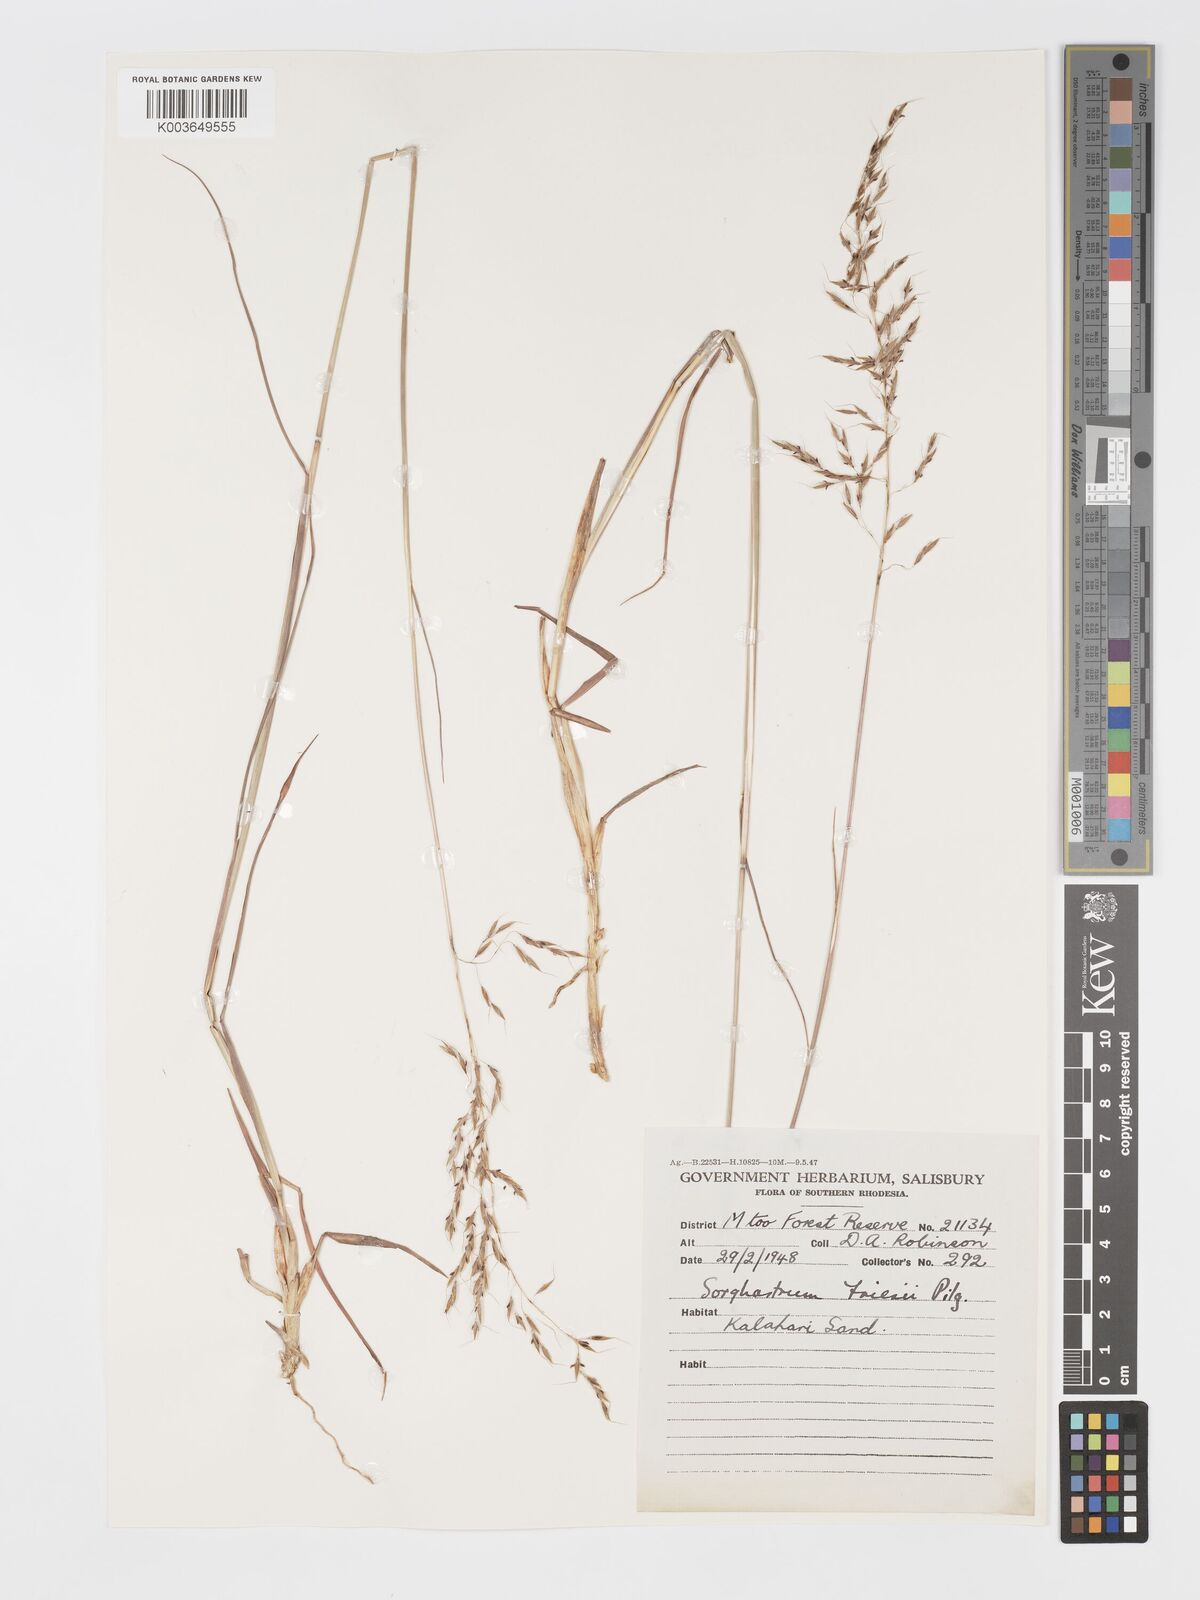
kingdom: Plantae
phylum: Tracheophyta
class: Liliopsida
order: Poales
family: Poaceae
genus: Sorghastrum
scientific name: Sorghastrum nudipes
